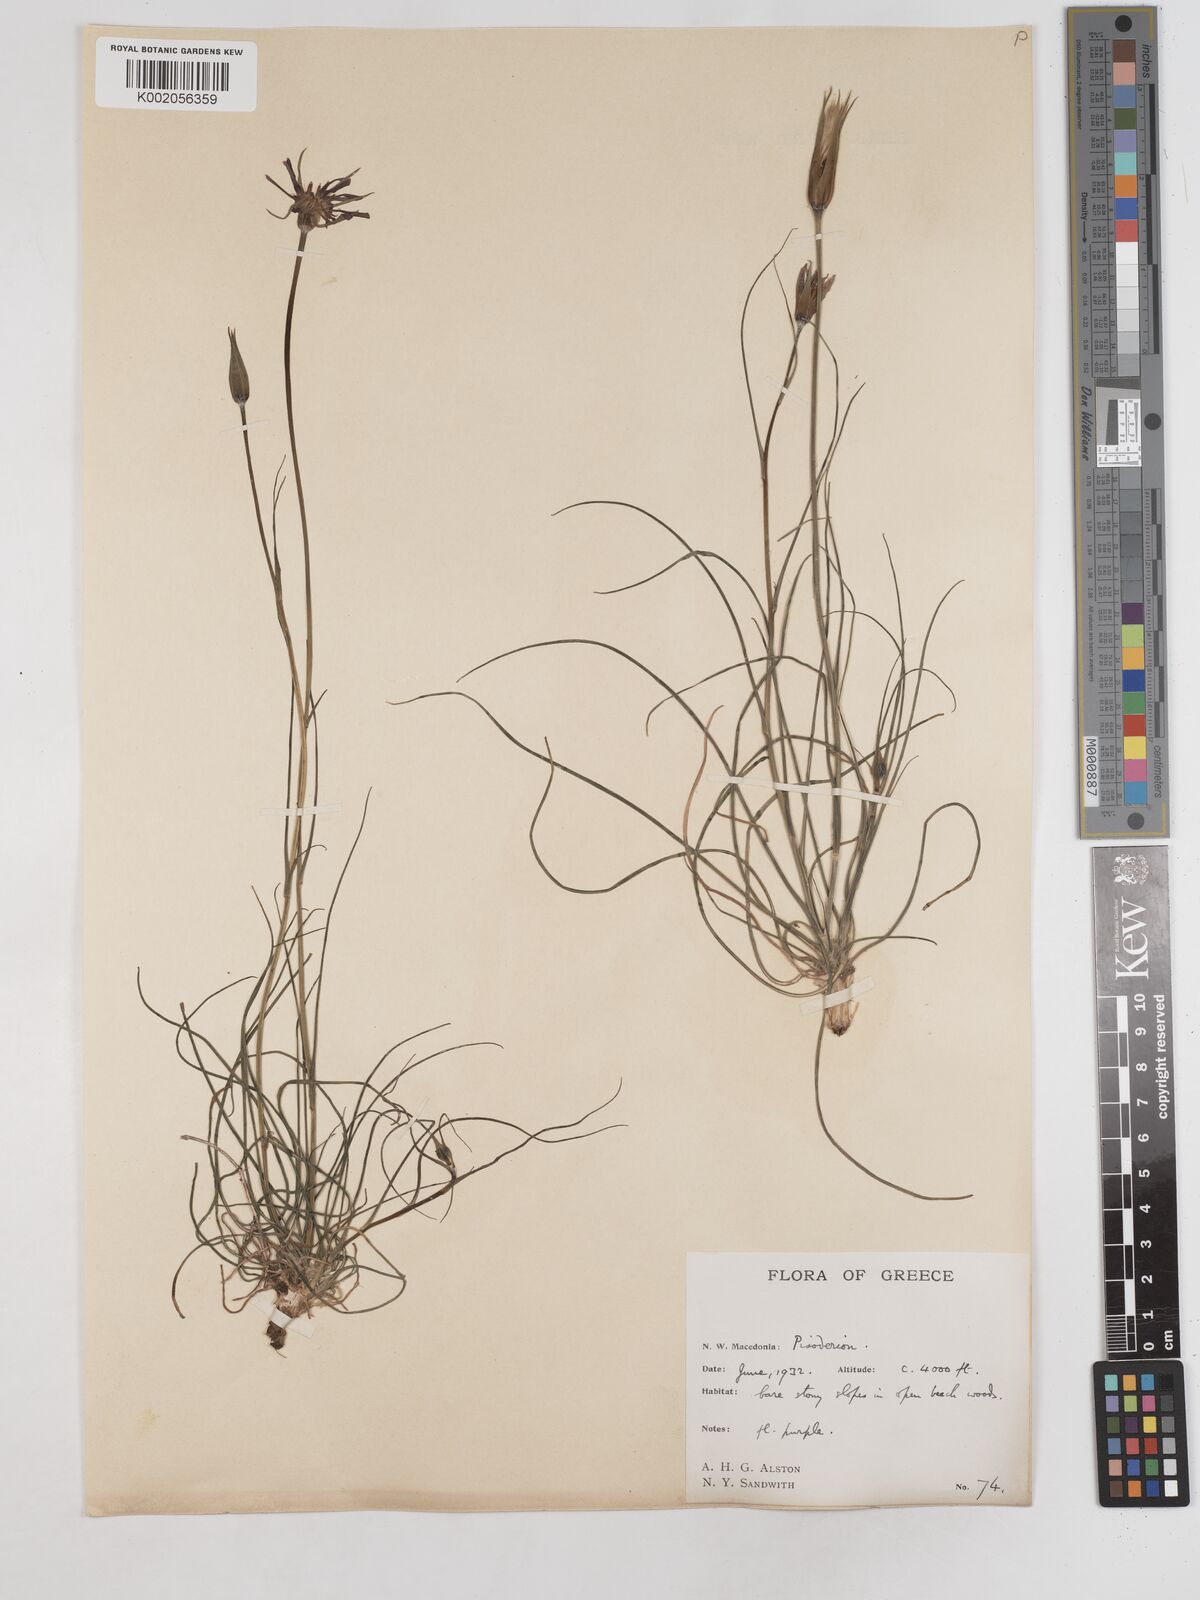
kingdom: Plantae
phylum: Tracheophyta
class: Magnoliopsida
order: Asterales
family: Asteraceae
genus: Tragopogon
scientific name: Tragopogon balcanicus
